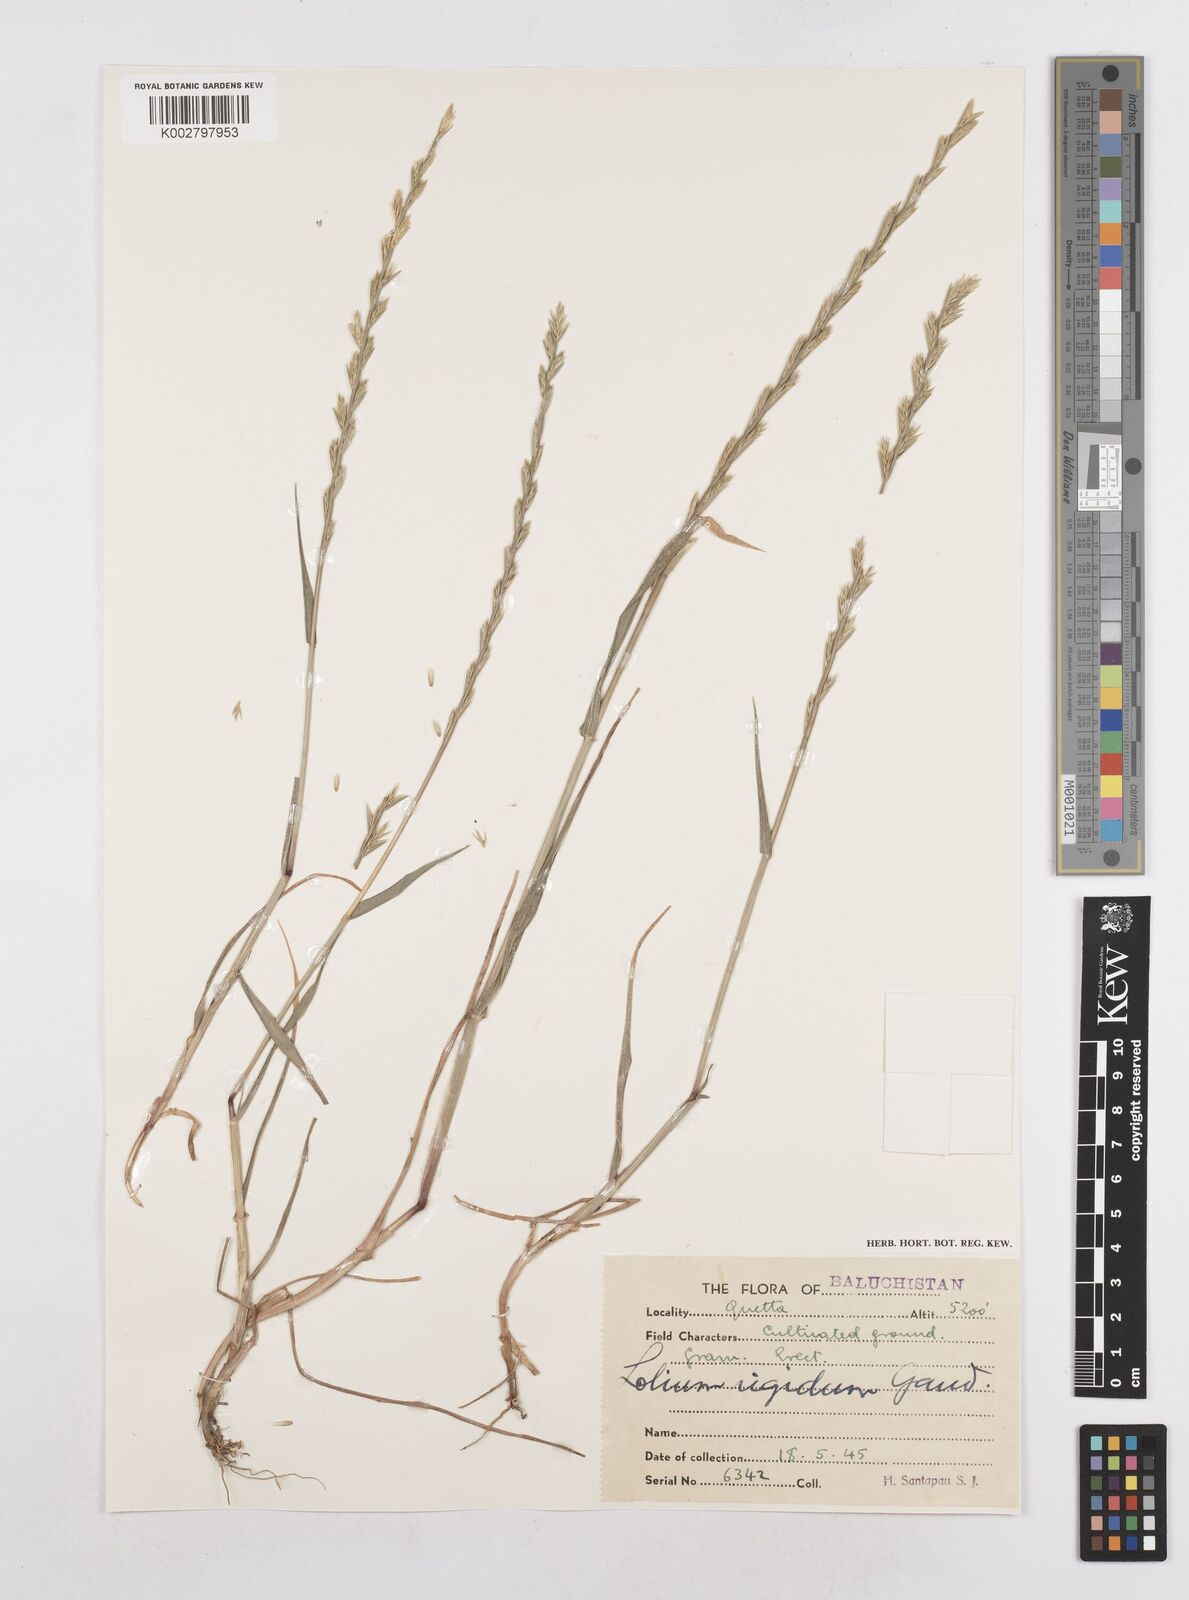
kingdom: Plantae
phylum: Tracheophyta
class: Liliopsida
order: Poales
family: Poaceae
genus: Lolium
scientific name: Lolium rigidum
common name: Wimmera ryegrass
